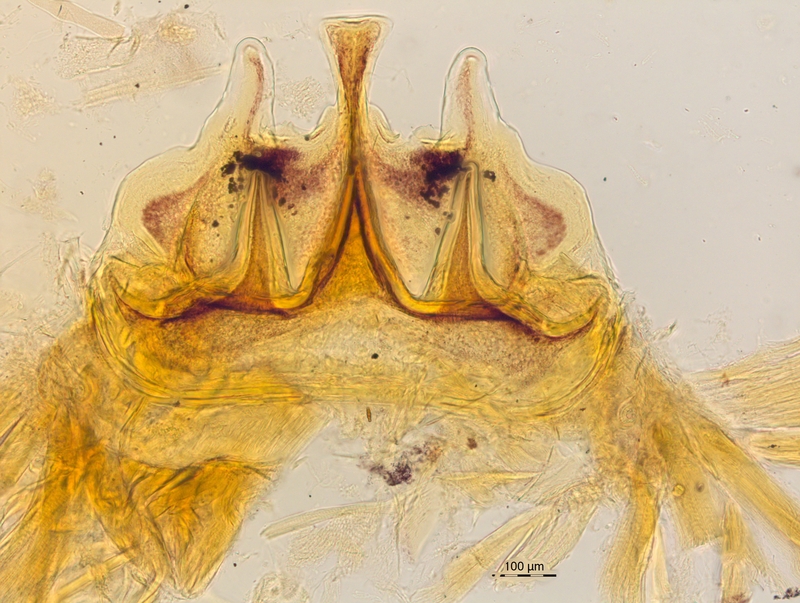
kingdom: Animalia
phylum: Arthropoda
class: Diplopoda
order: Chordeumatida
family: Craspedosomatidae
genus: Craspedosoma
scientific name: Craspedosoma rawlinsii
